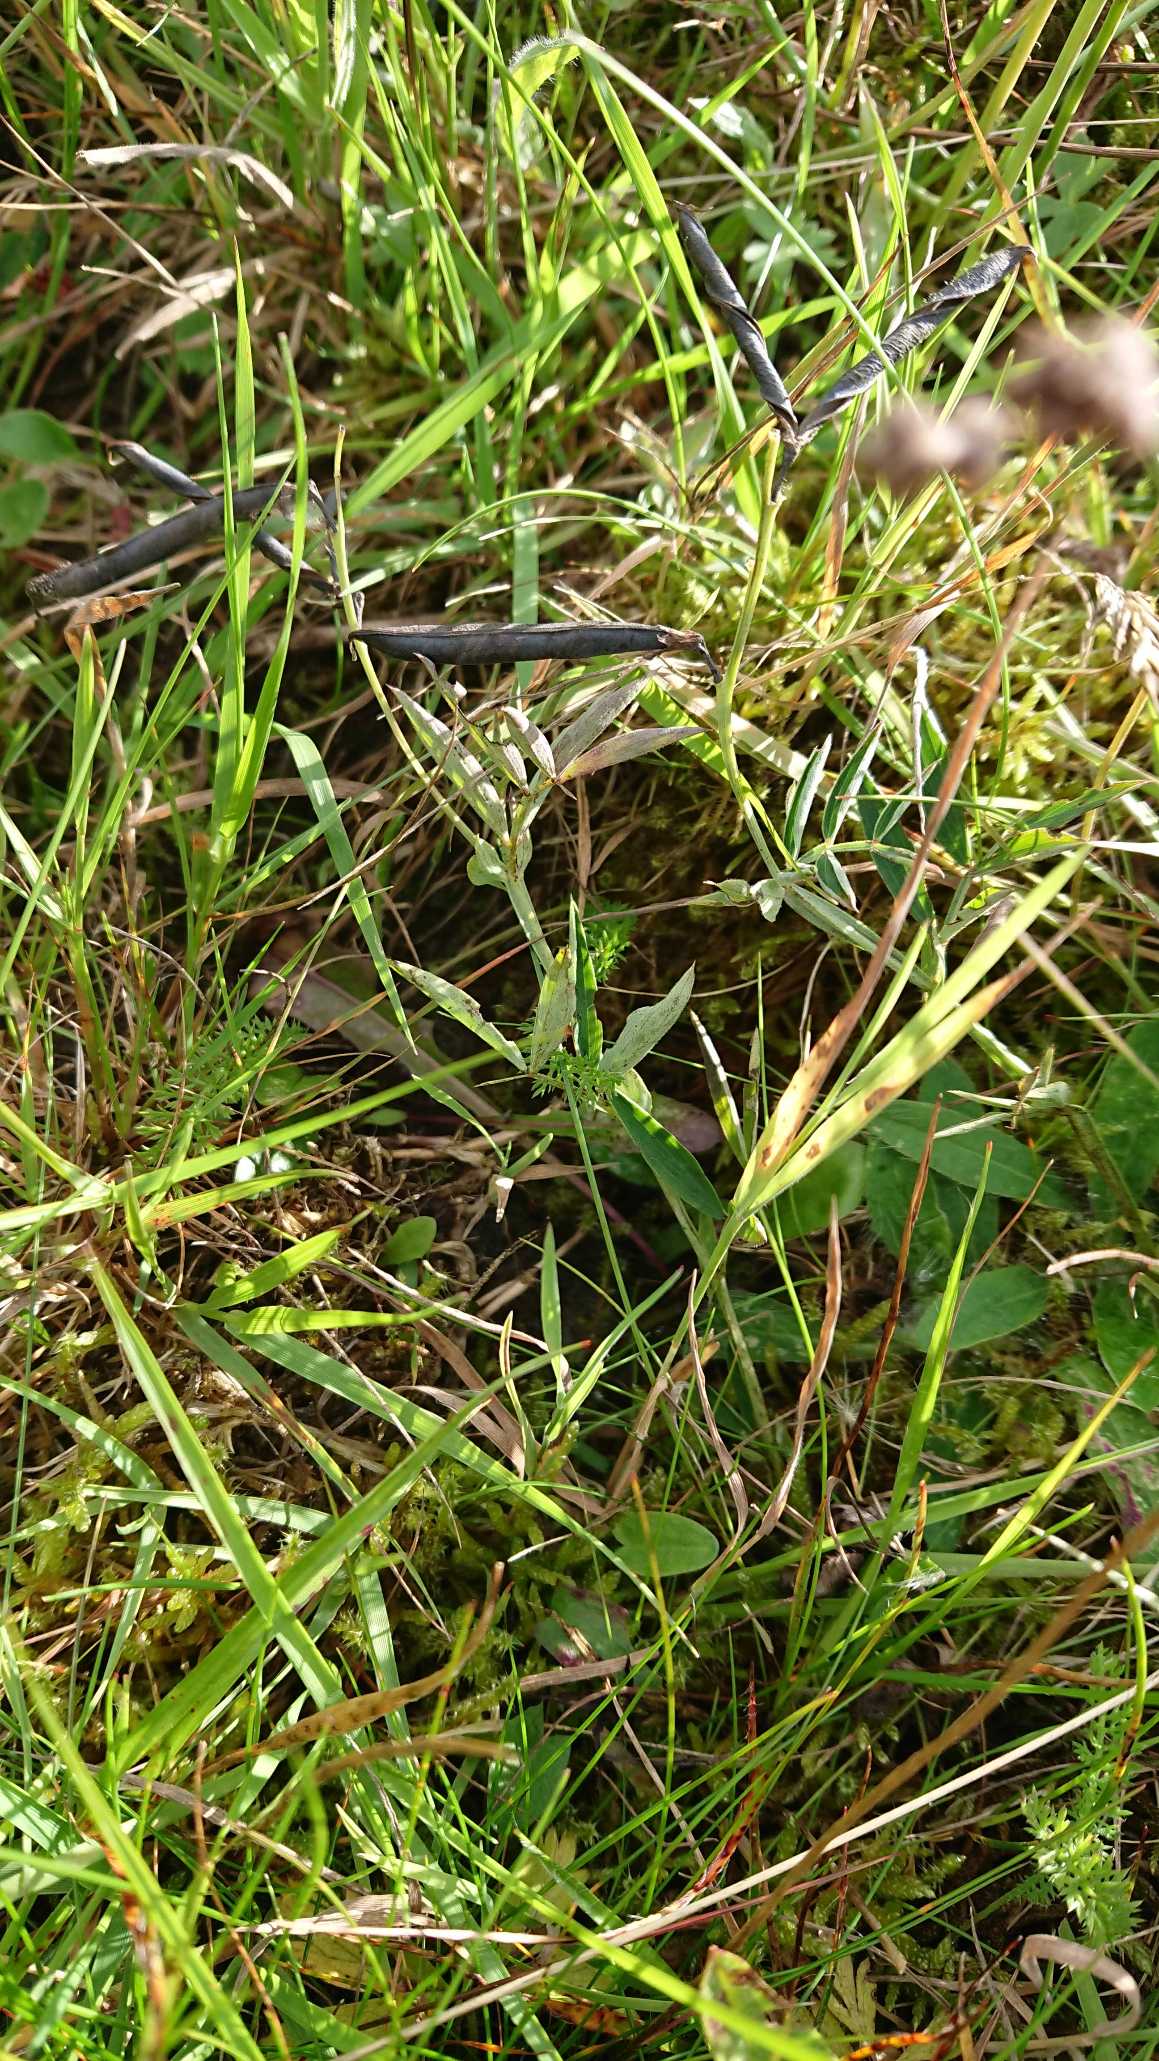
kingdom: Plantae
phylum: Tracheophyta
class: Magnoliopsida
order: Fabales
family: Fabaceae
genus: Lathyrus
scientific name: Lathyrus linifolius
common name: Krat-fladbælg
